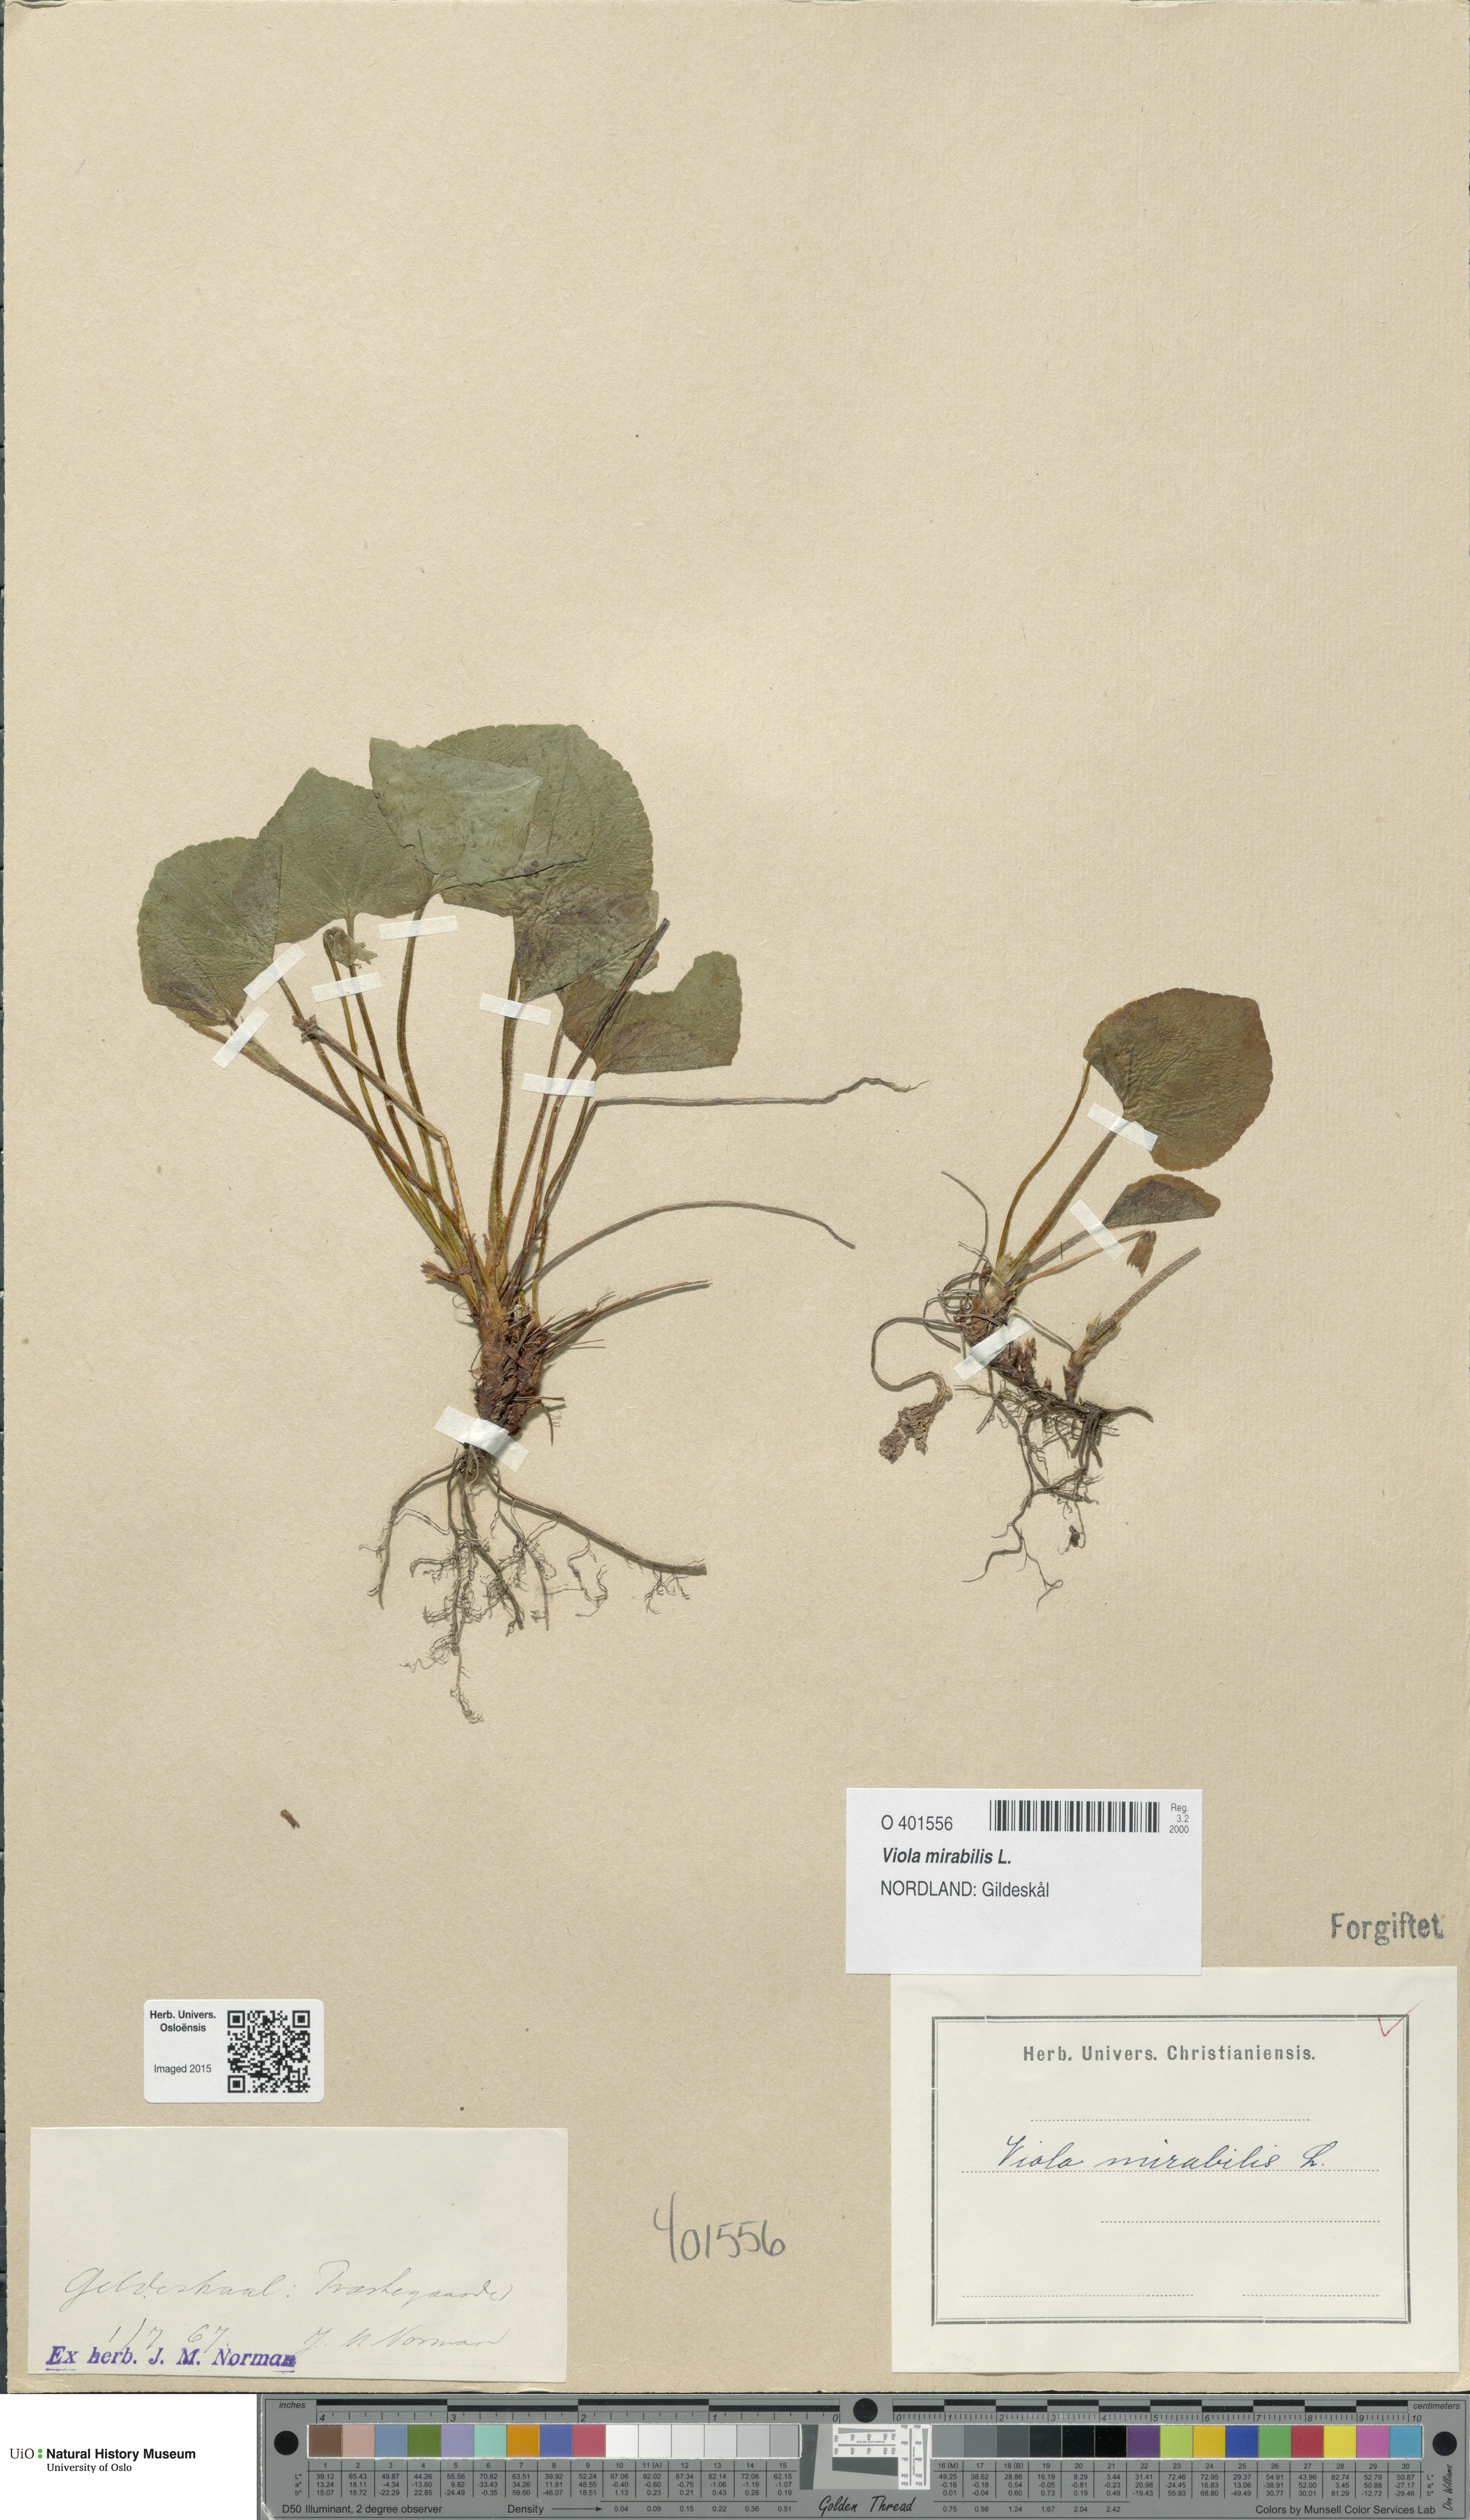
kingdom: Plantae
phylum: Tracheophyta
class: Magnoliopsida
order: Malpighiales
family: Violaceae
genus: Viola
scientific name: Viola mirabilis
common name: Wonder violet
